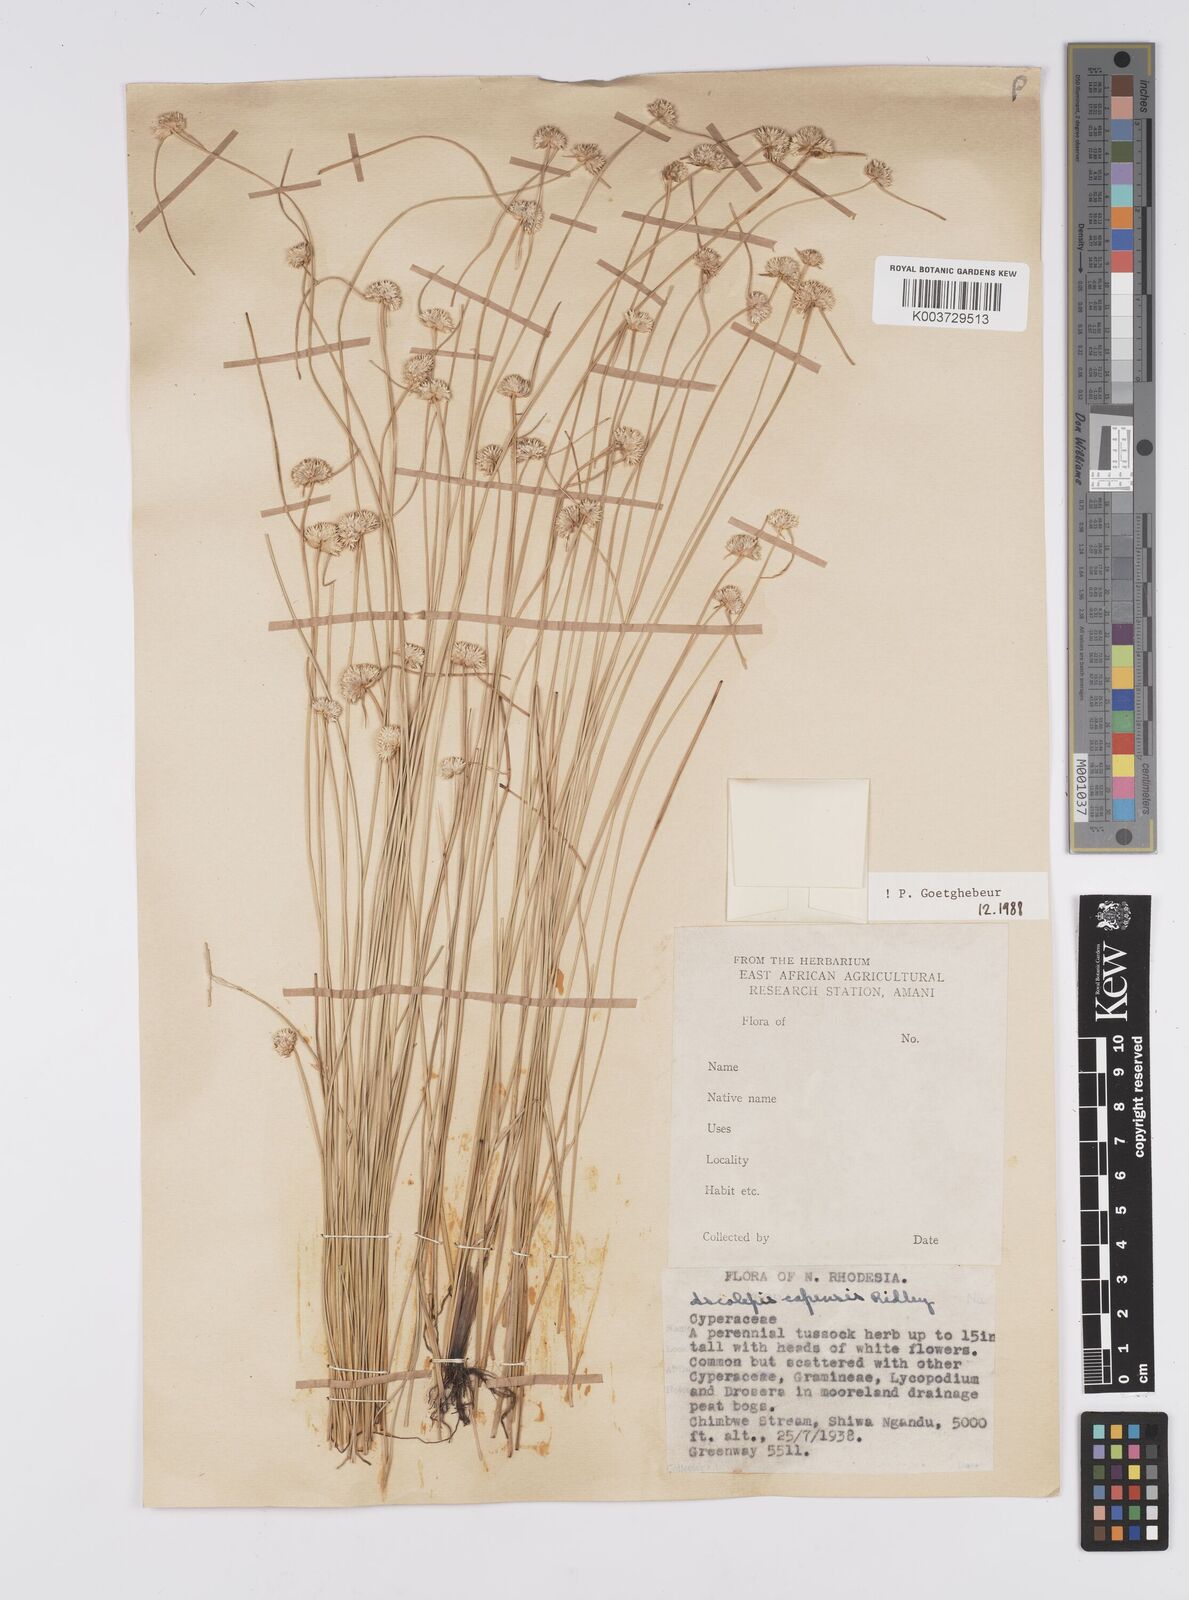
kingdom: Plantae
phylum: Tracheophyta
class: Liliopsida
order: Poales
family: Cyperaceae
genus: Cyperus
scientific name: Cyperus
